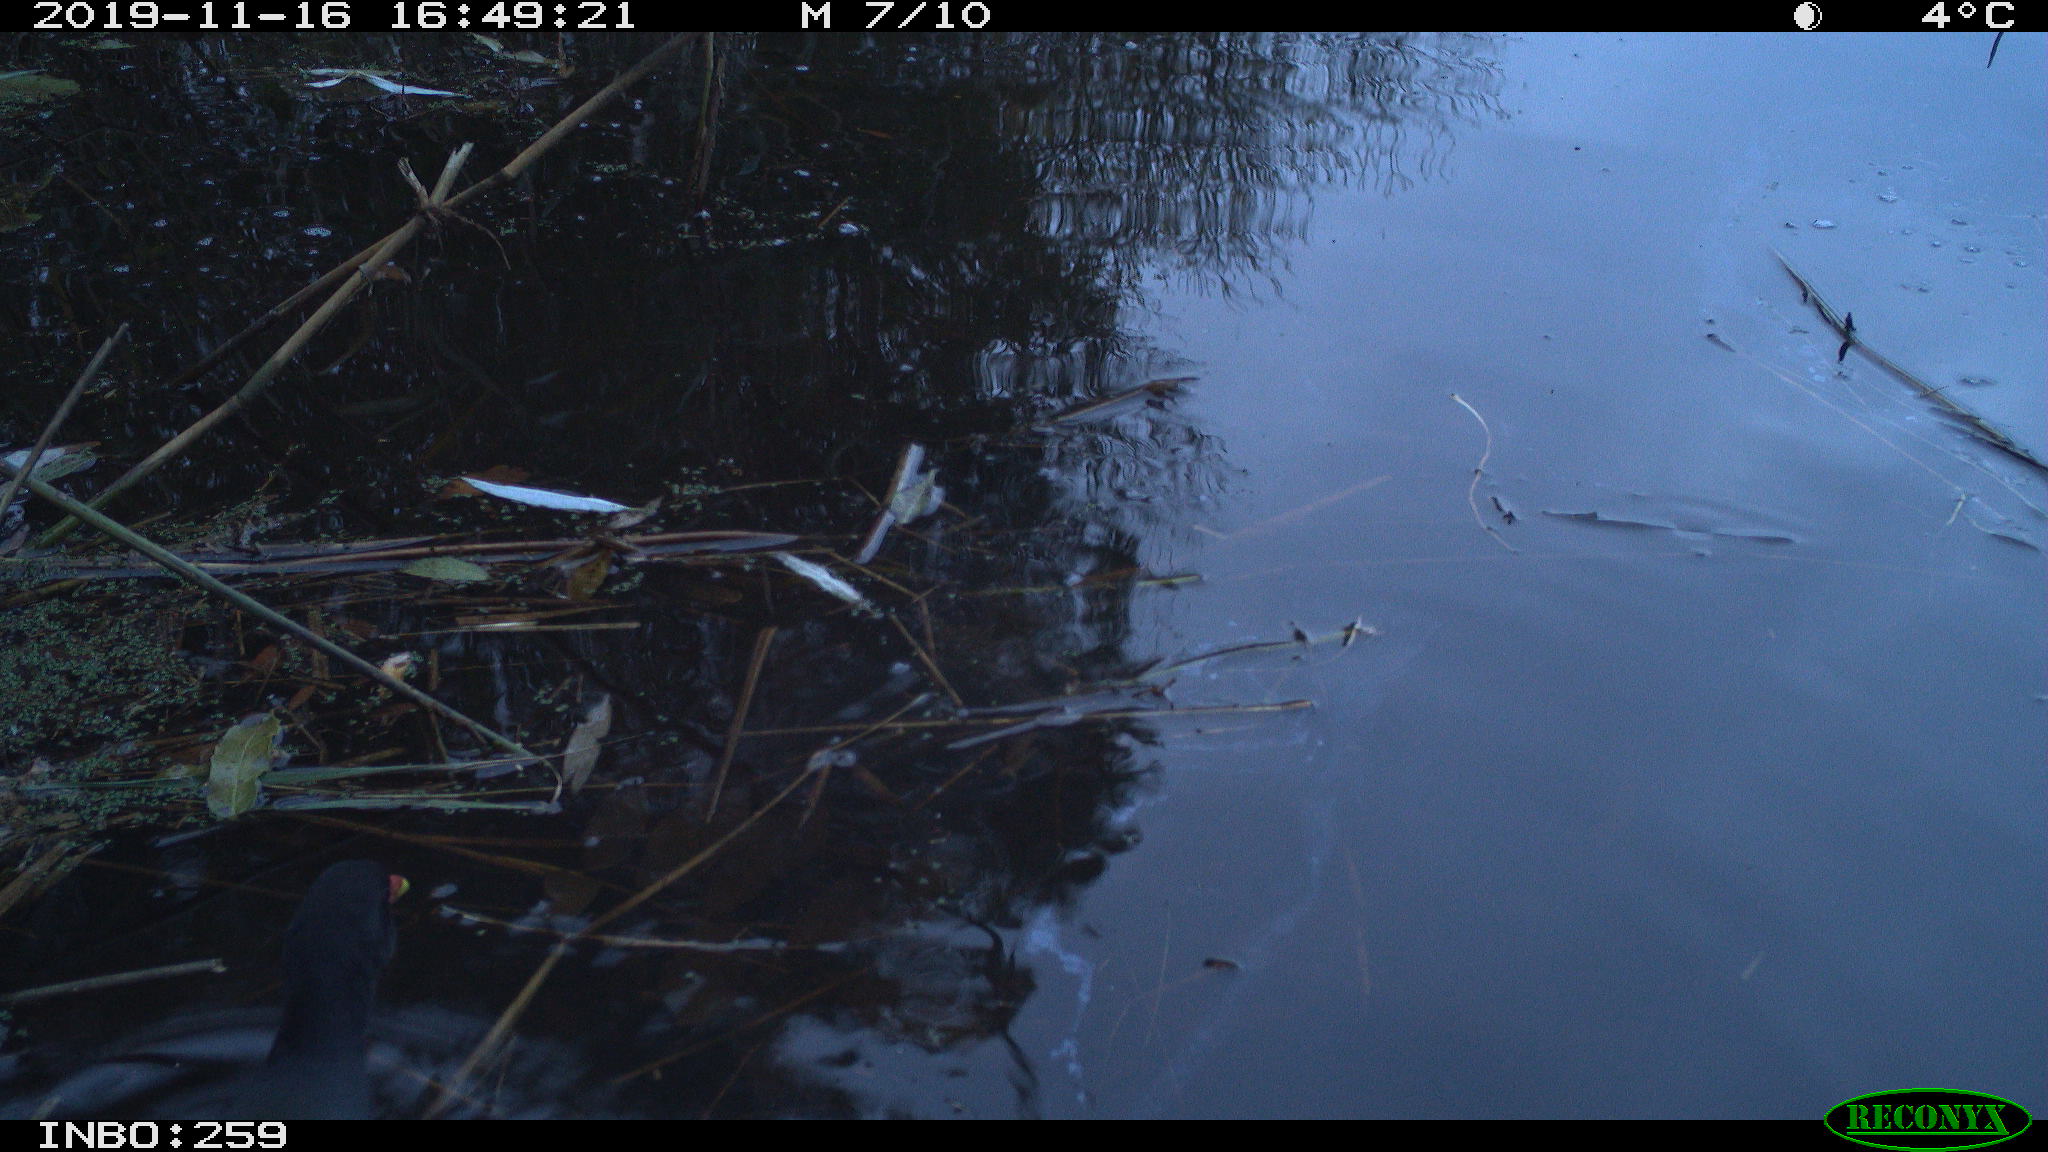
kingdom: Animalia
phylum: Chordata
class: Aves
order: Gruiformes
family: Rallidae
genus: Gallinula
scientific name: Gallinula chloropus
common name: Common moorhen
